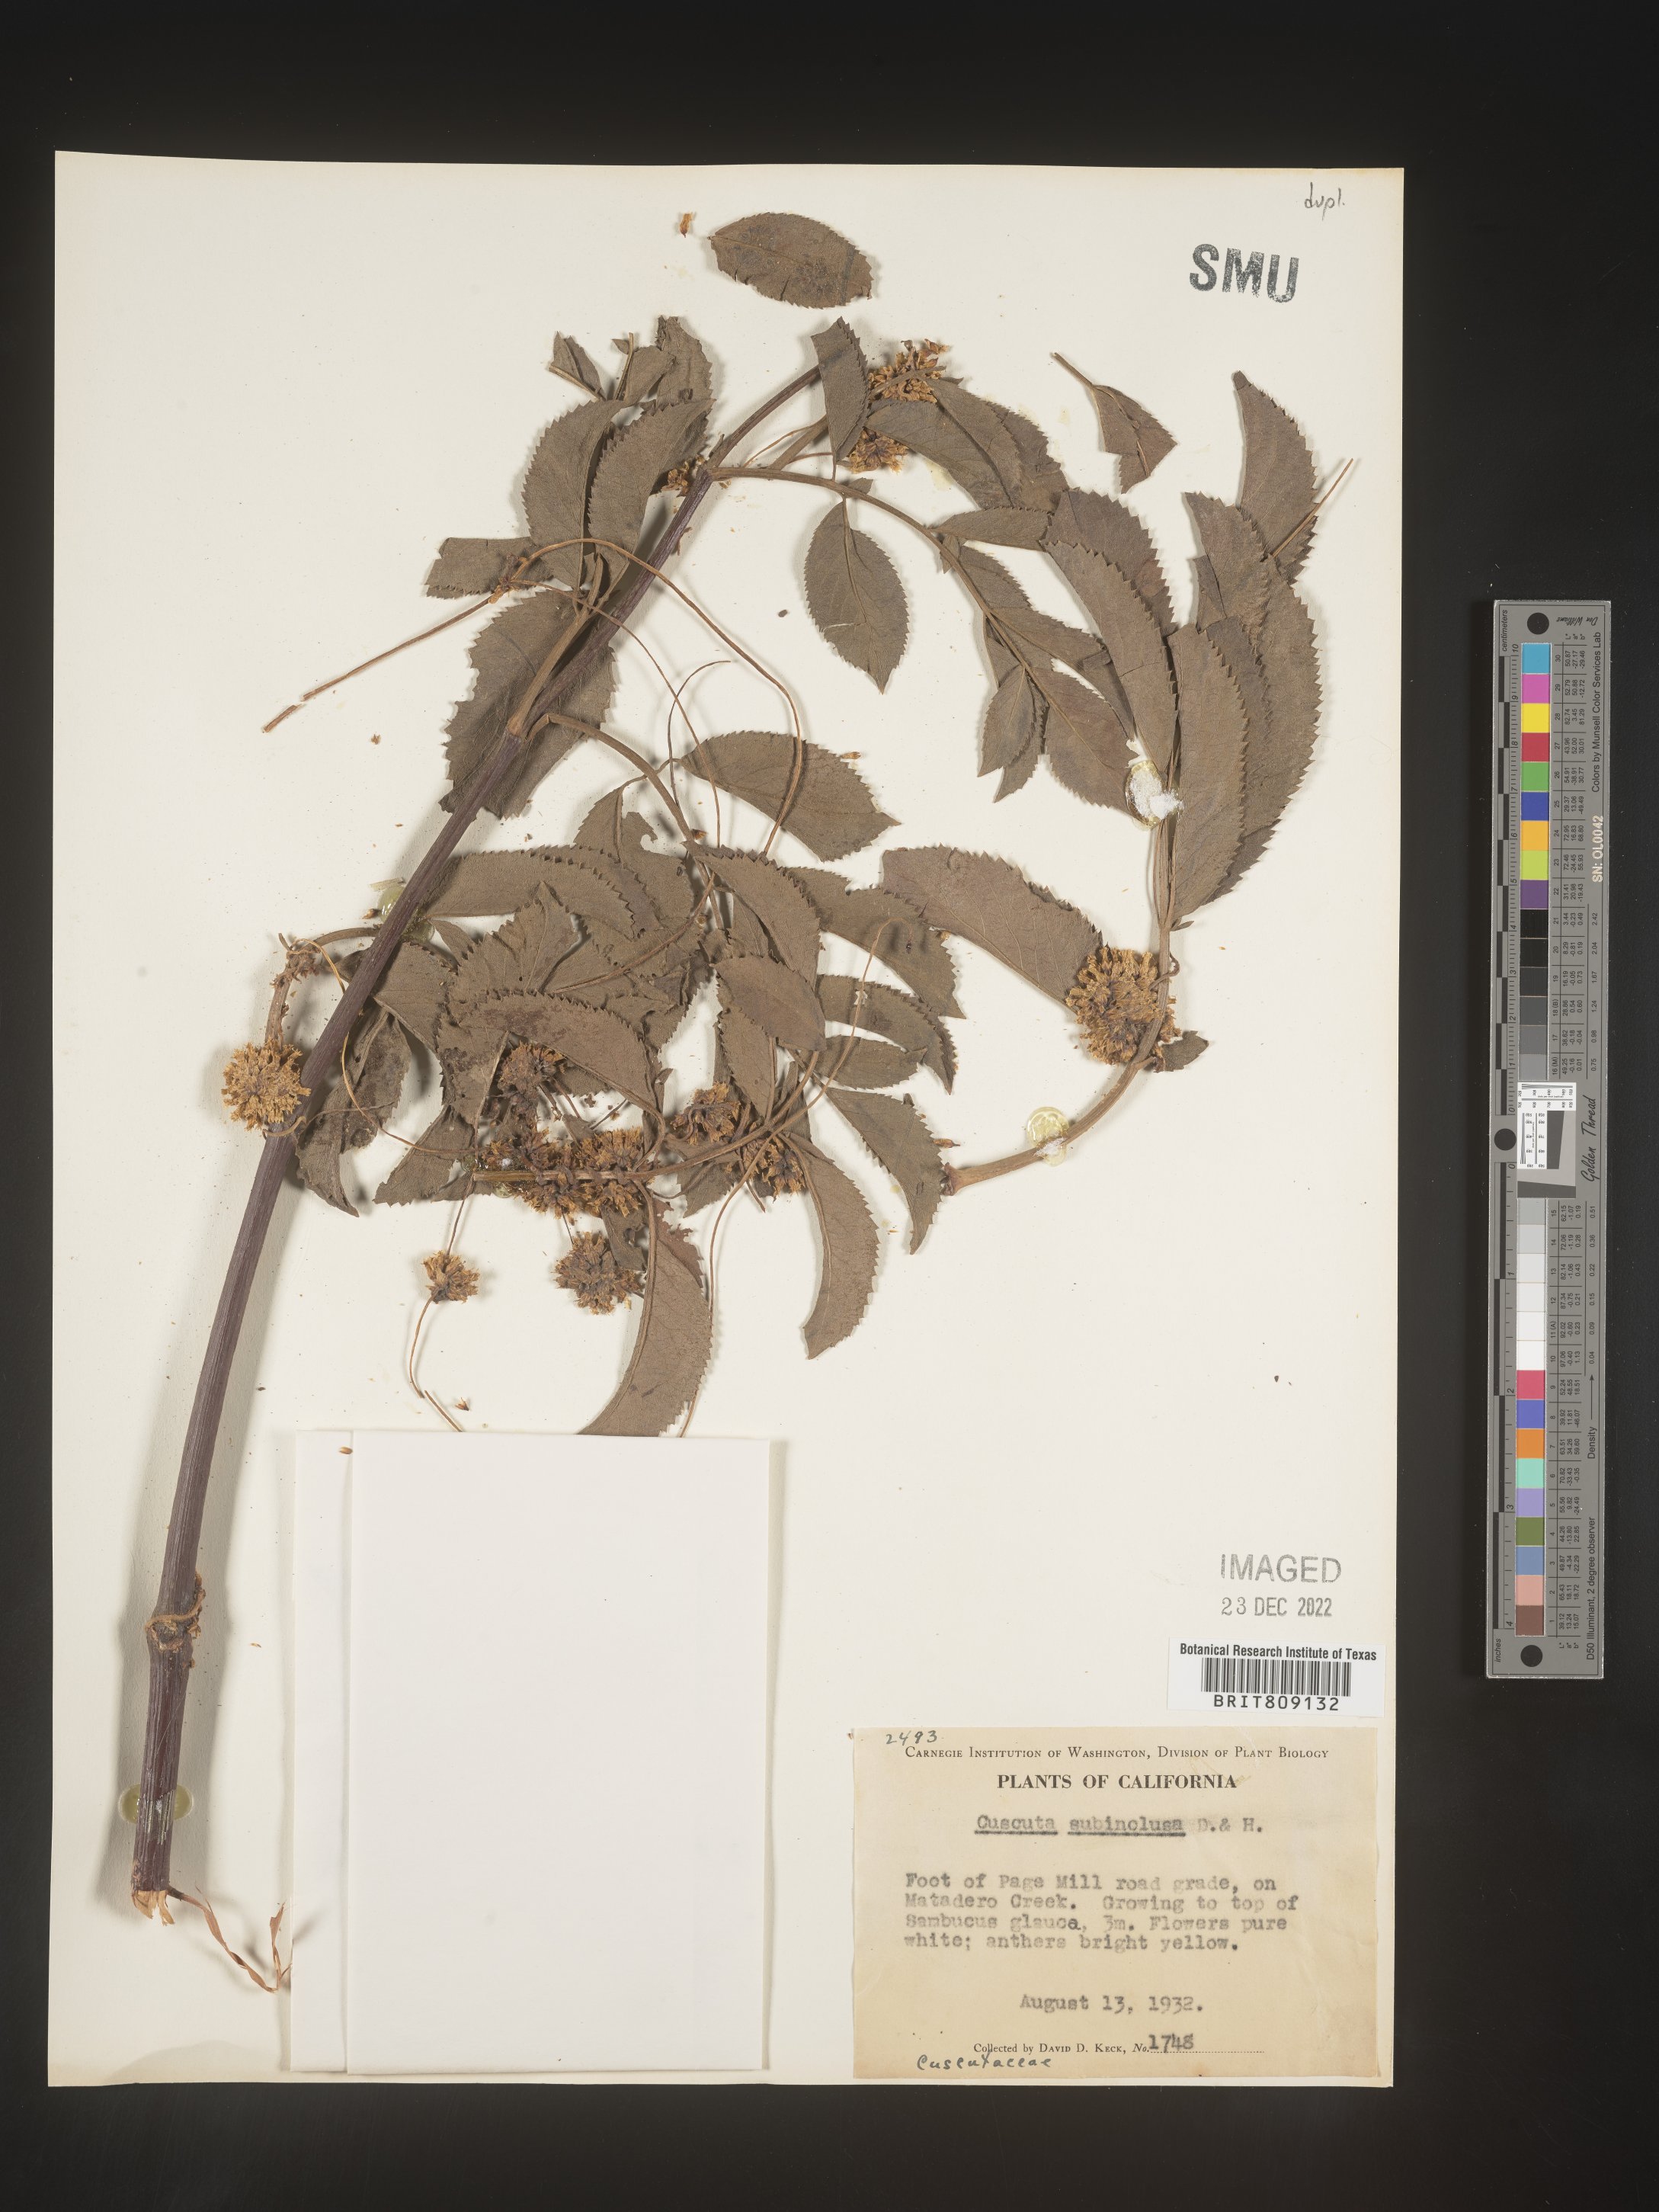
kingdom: Plantae
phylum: Tracheophyta
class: Magnoliopsida
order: Solanales
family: Convolvulaceae
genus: Cuscuta
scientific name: Cuscuta subinclusa
